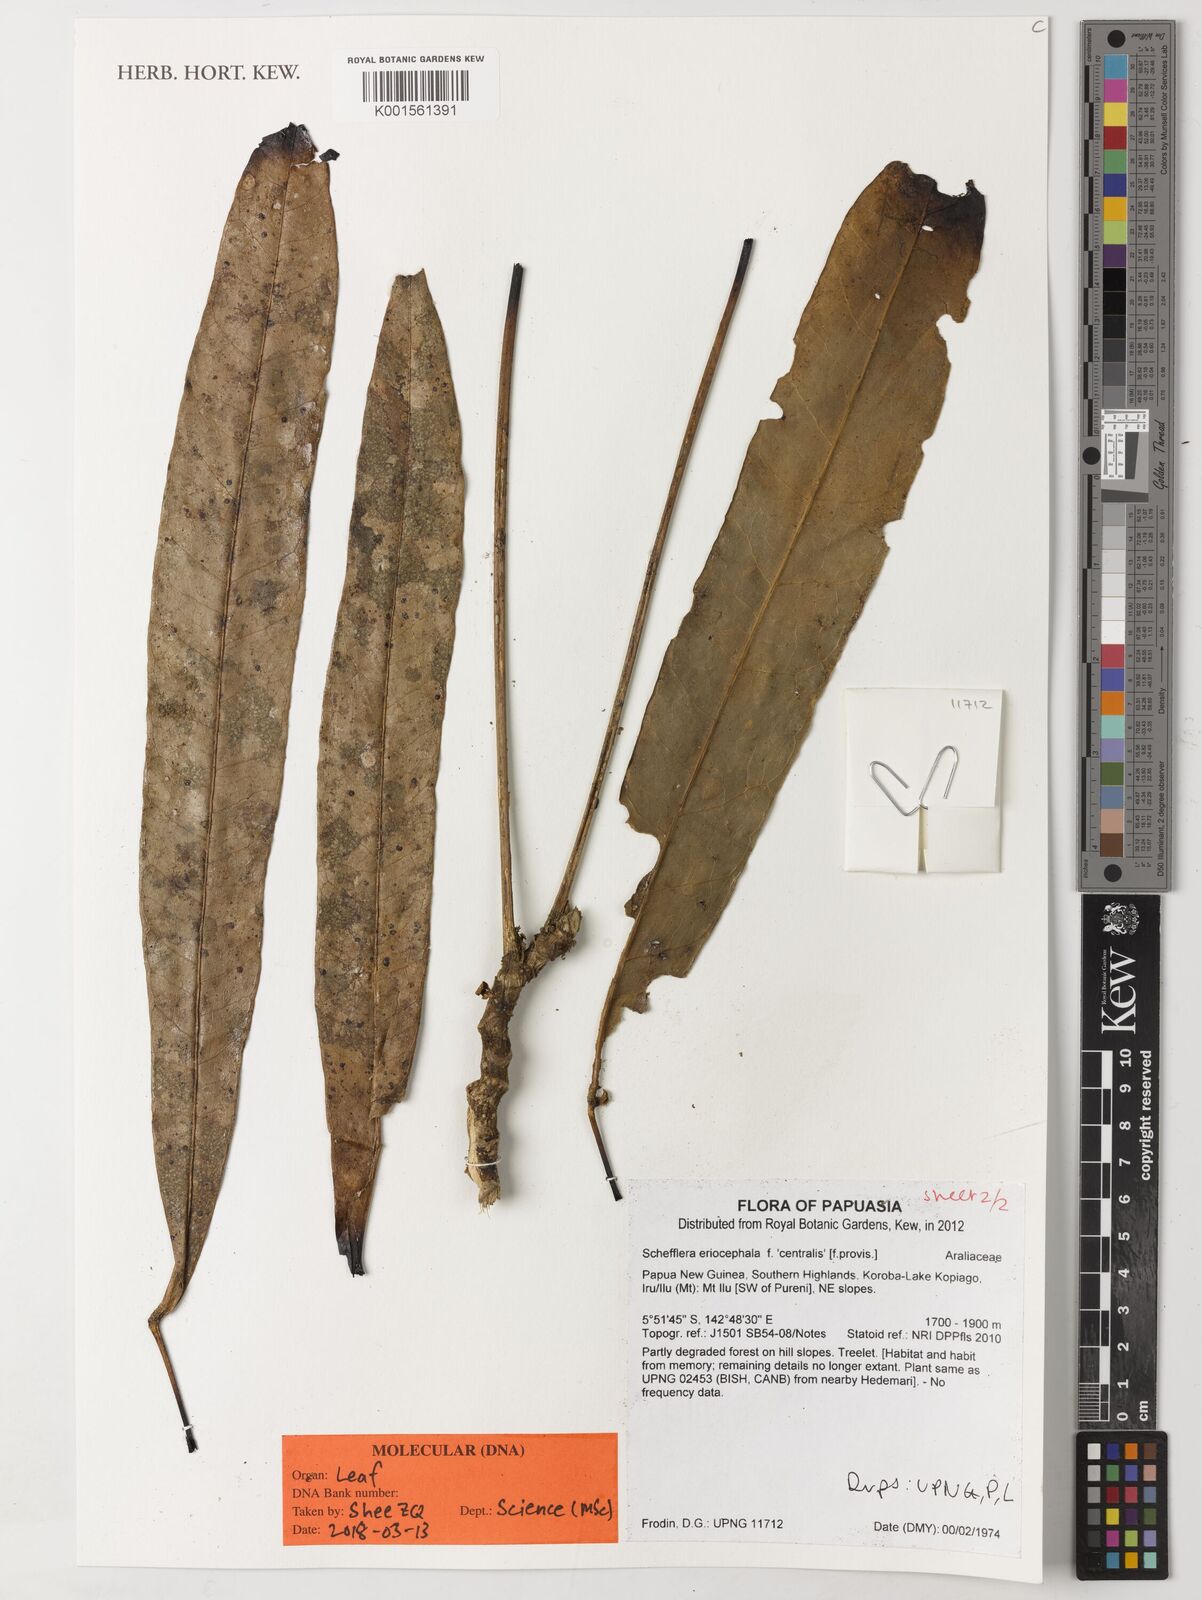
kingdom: Plantae
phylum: Tracheophyta
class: Magnoliopsida
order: Apiales
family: Araliaceae
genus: Schefflera
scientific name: Schefflera
